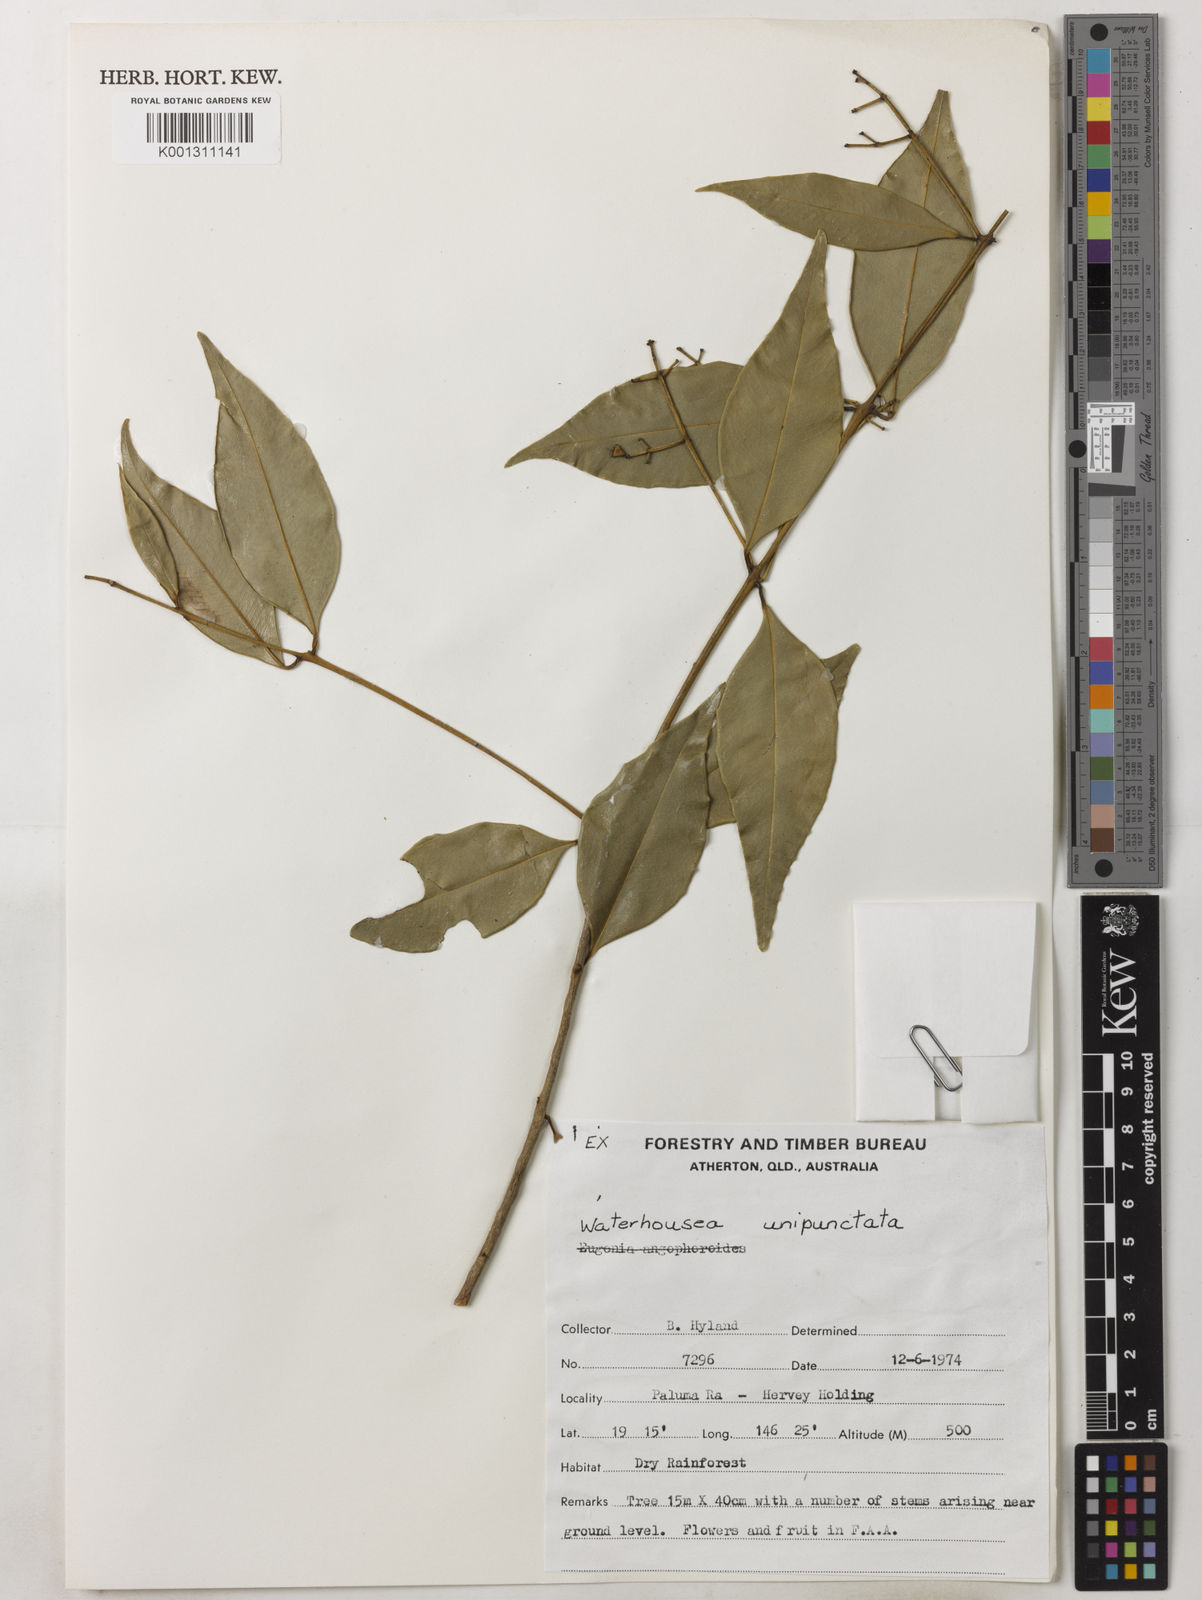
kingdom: Plantae
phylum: Tracheophyta
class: Magnoliopsida
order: Myrtales
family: Myrtaceae
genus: Syzygium
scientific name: Syzygium unipunctatum
